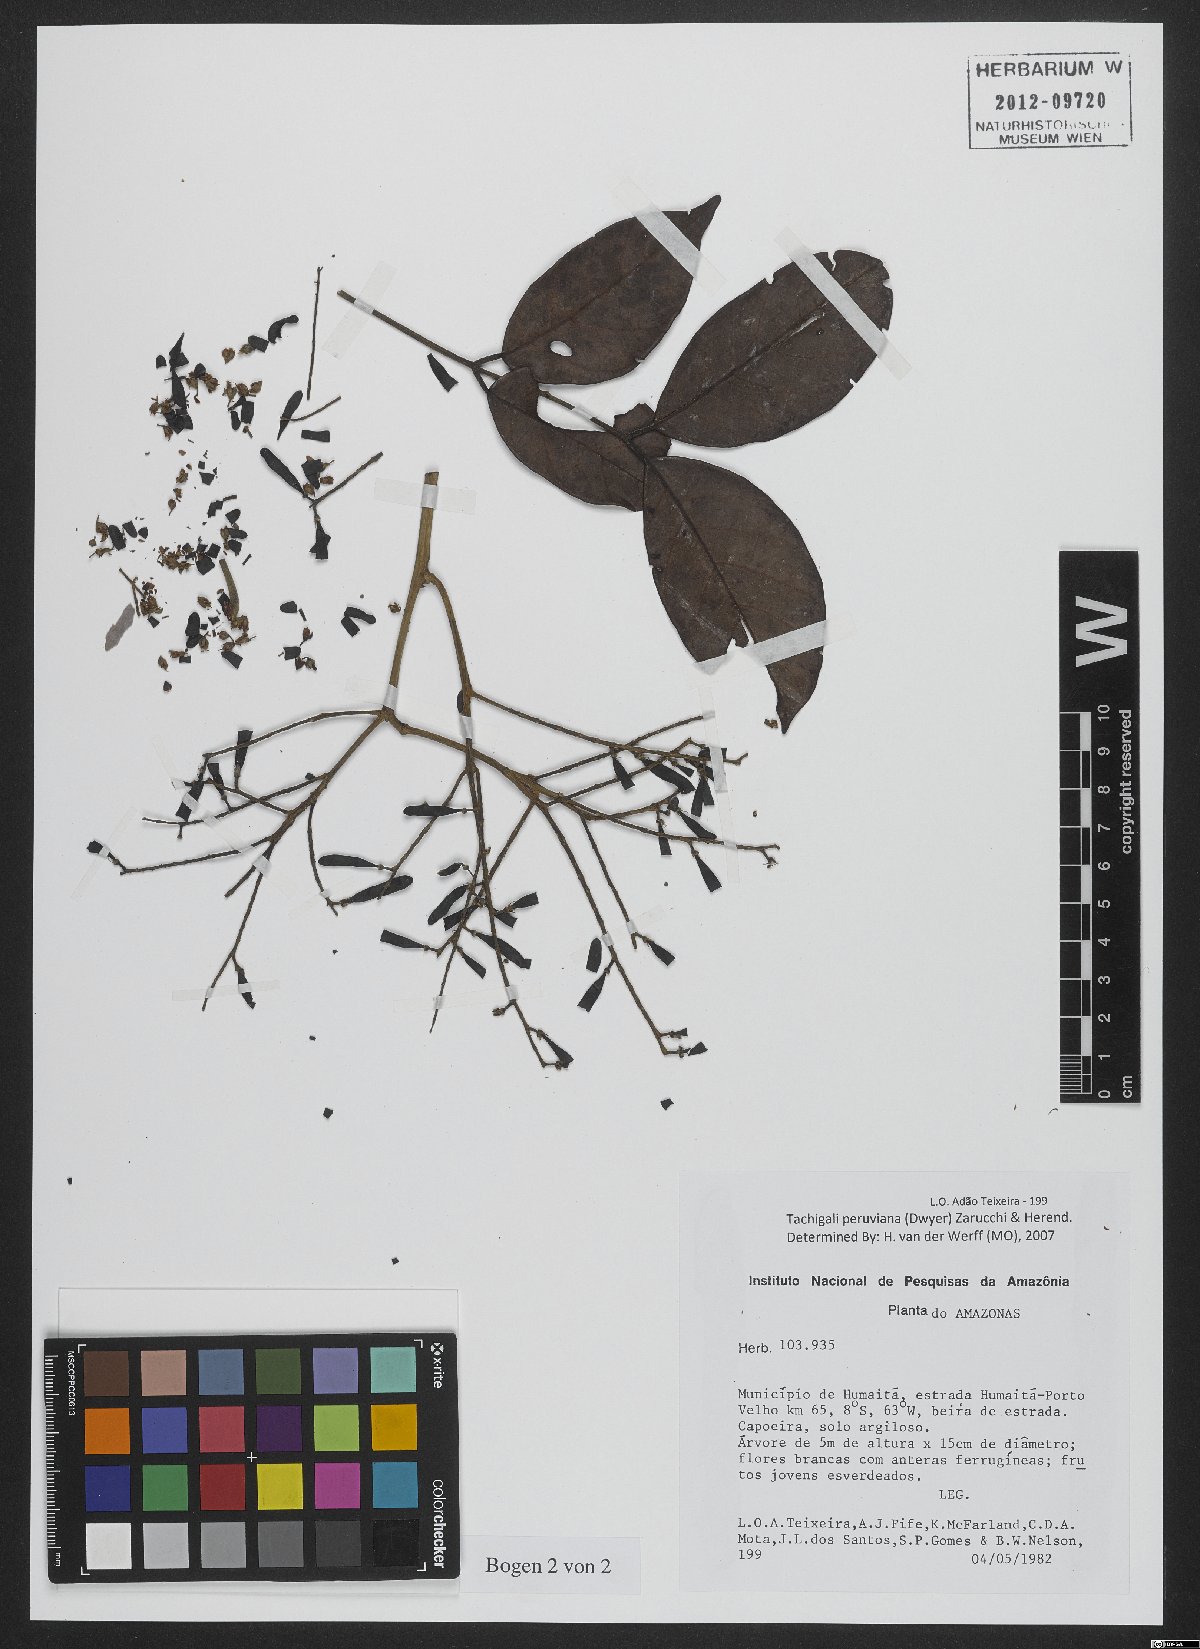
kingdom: Plantae
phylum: Tracheophyta
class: Magnoliopsida
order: Fabales
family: Fabaceae
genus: Tachigali
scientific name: Tachigali peruviana
